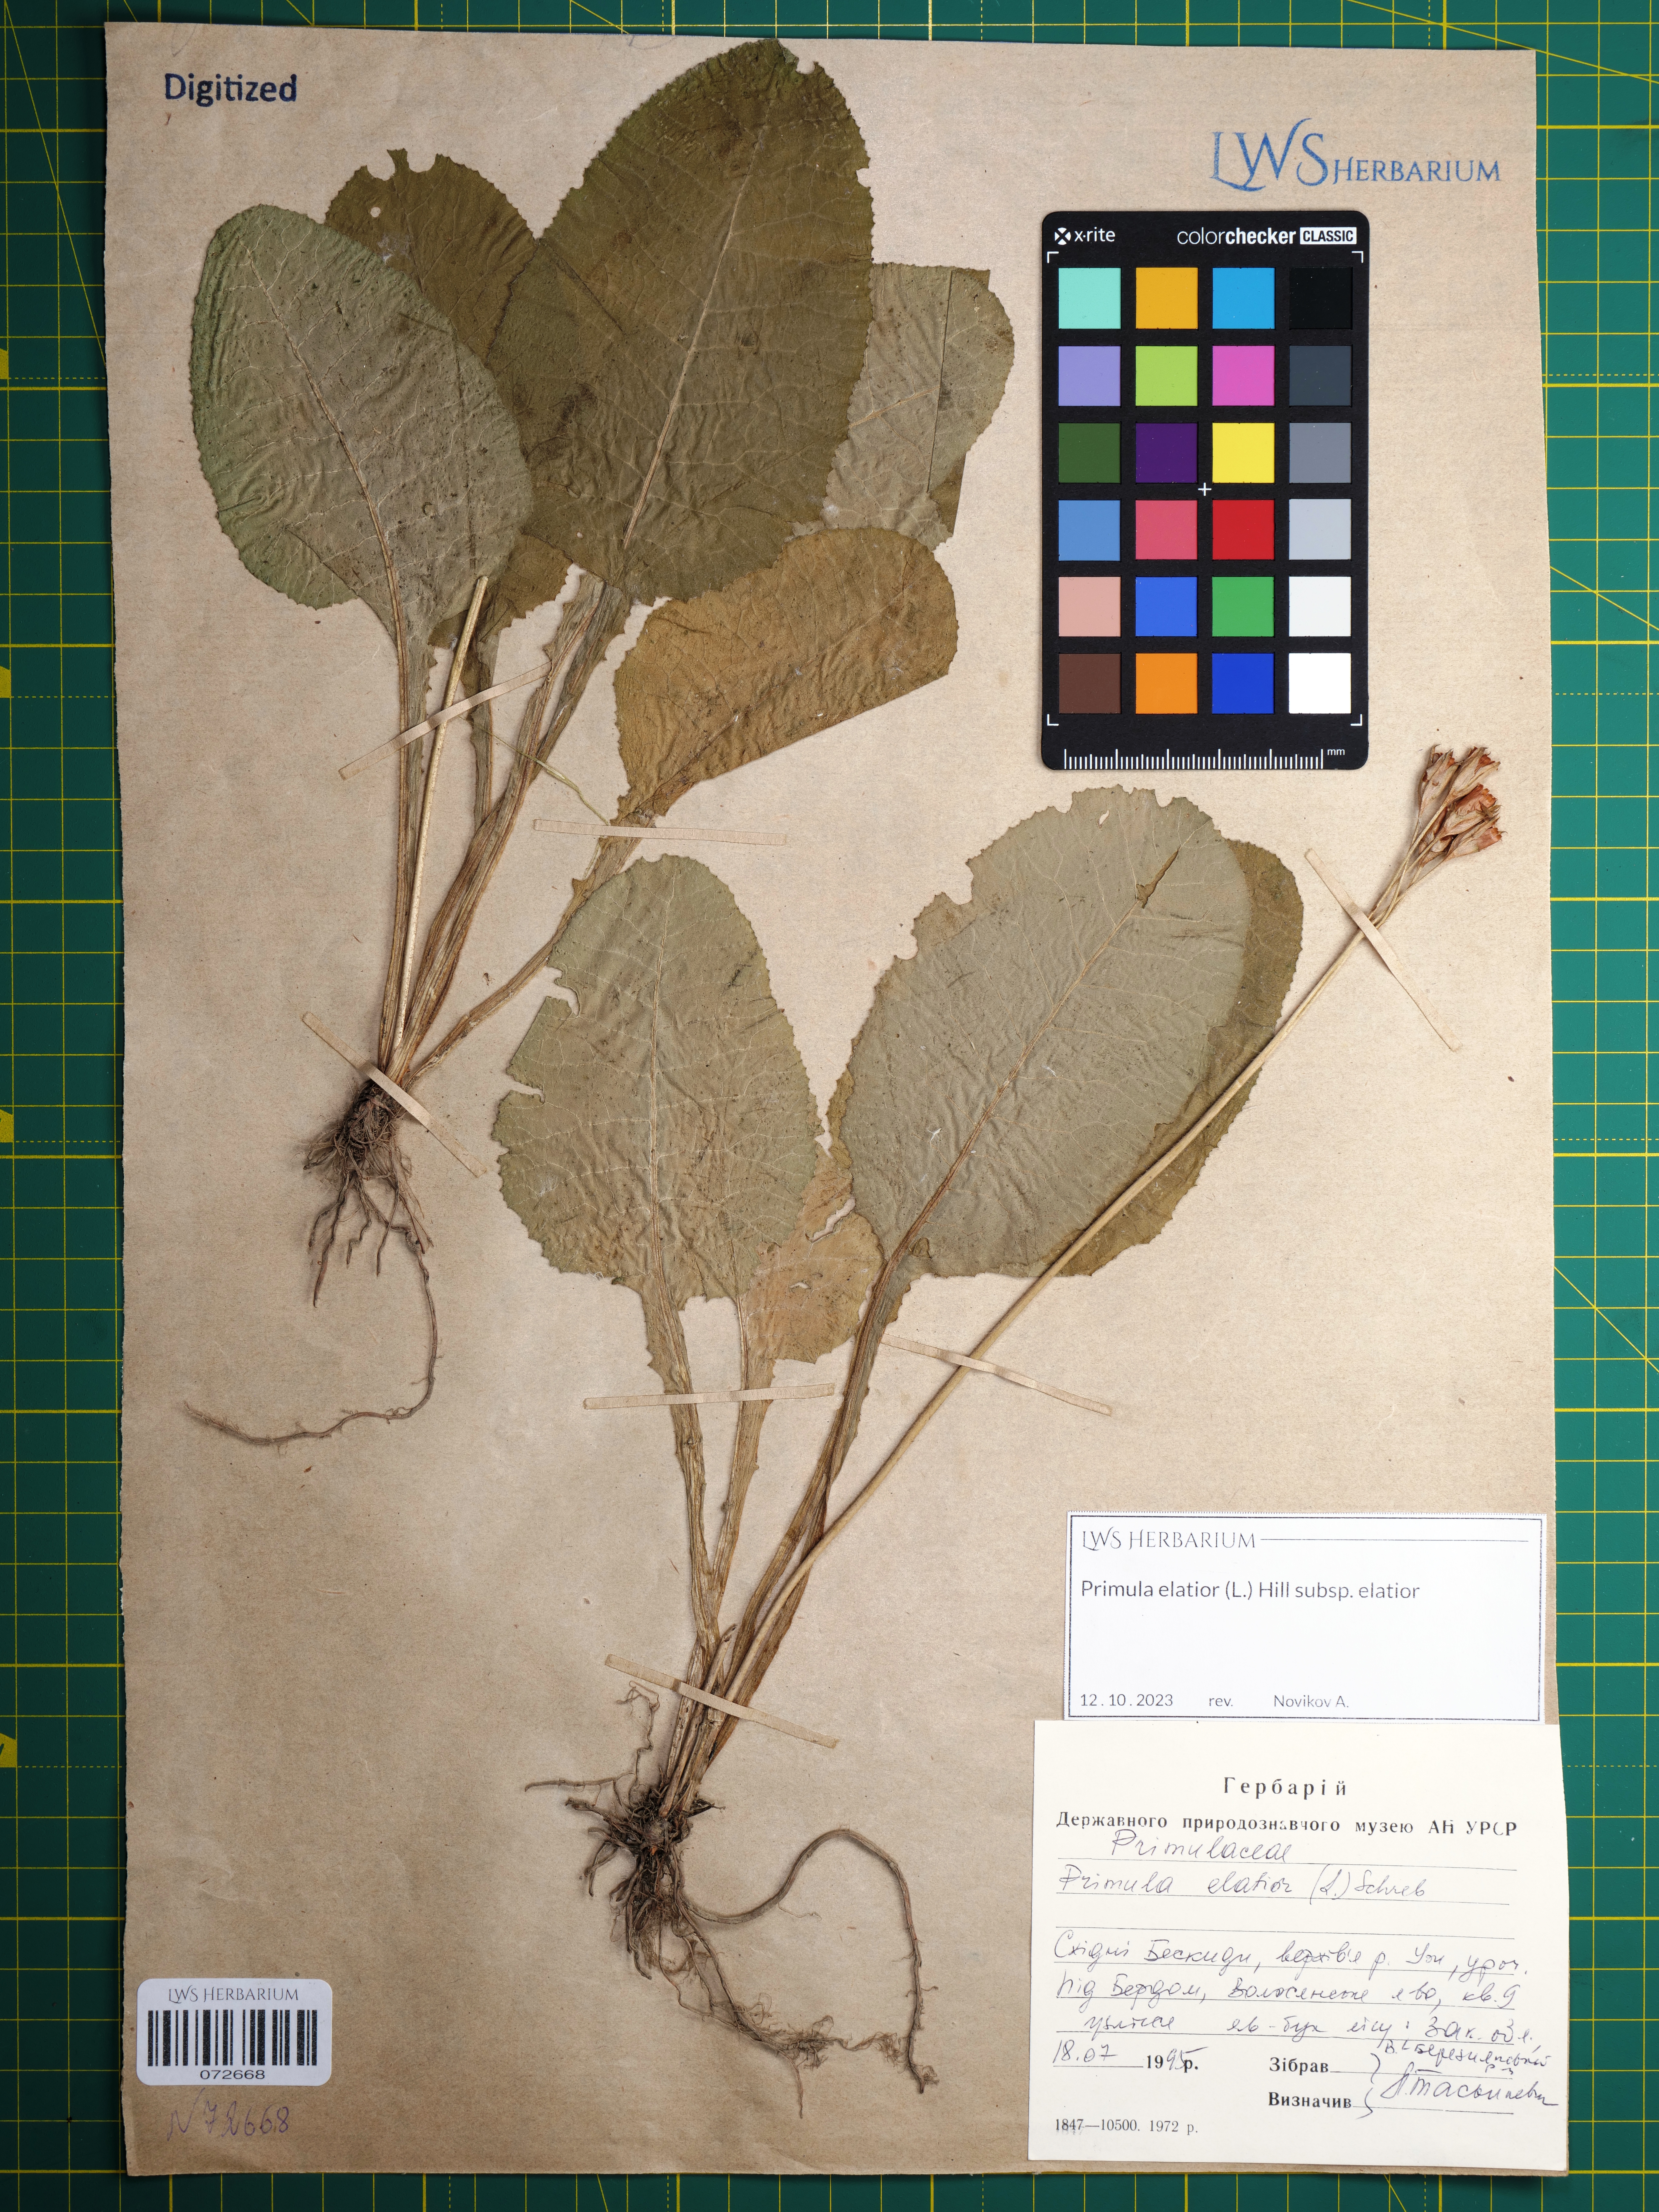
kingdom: Plantae
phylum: Tracheophyta
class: Magnoliopsida
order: Ericales
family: Primulaceae
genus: Primula
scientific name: Primula elatior
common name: Oxlip
